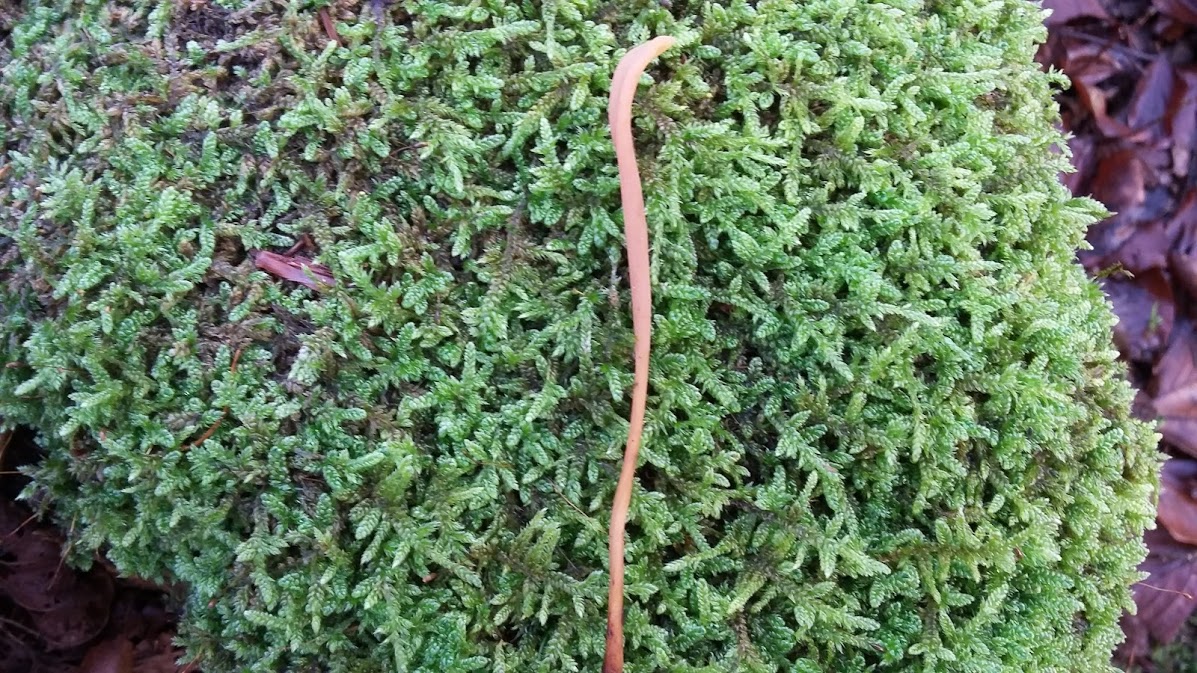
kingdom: Fungi
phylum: Basidiomycota
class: Agaricomycetes
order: Agaricales
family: Typhulaceae
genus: Typhula
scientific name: Typhula fistulosa
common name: pibet rørkølle
